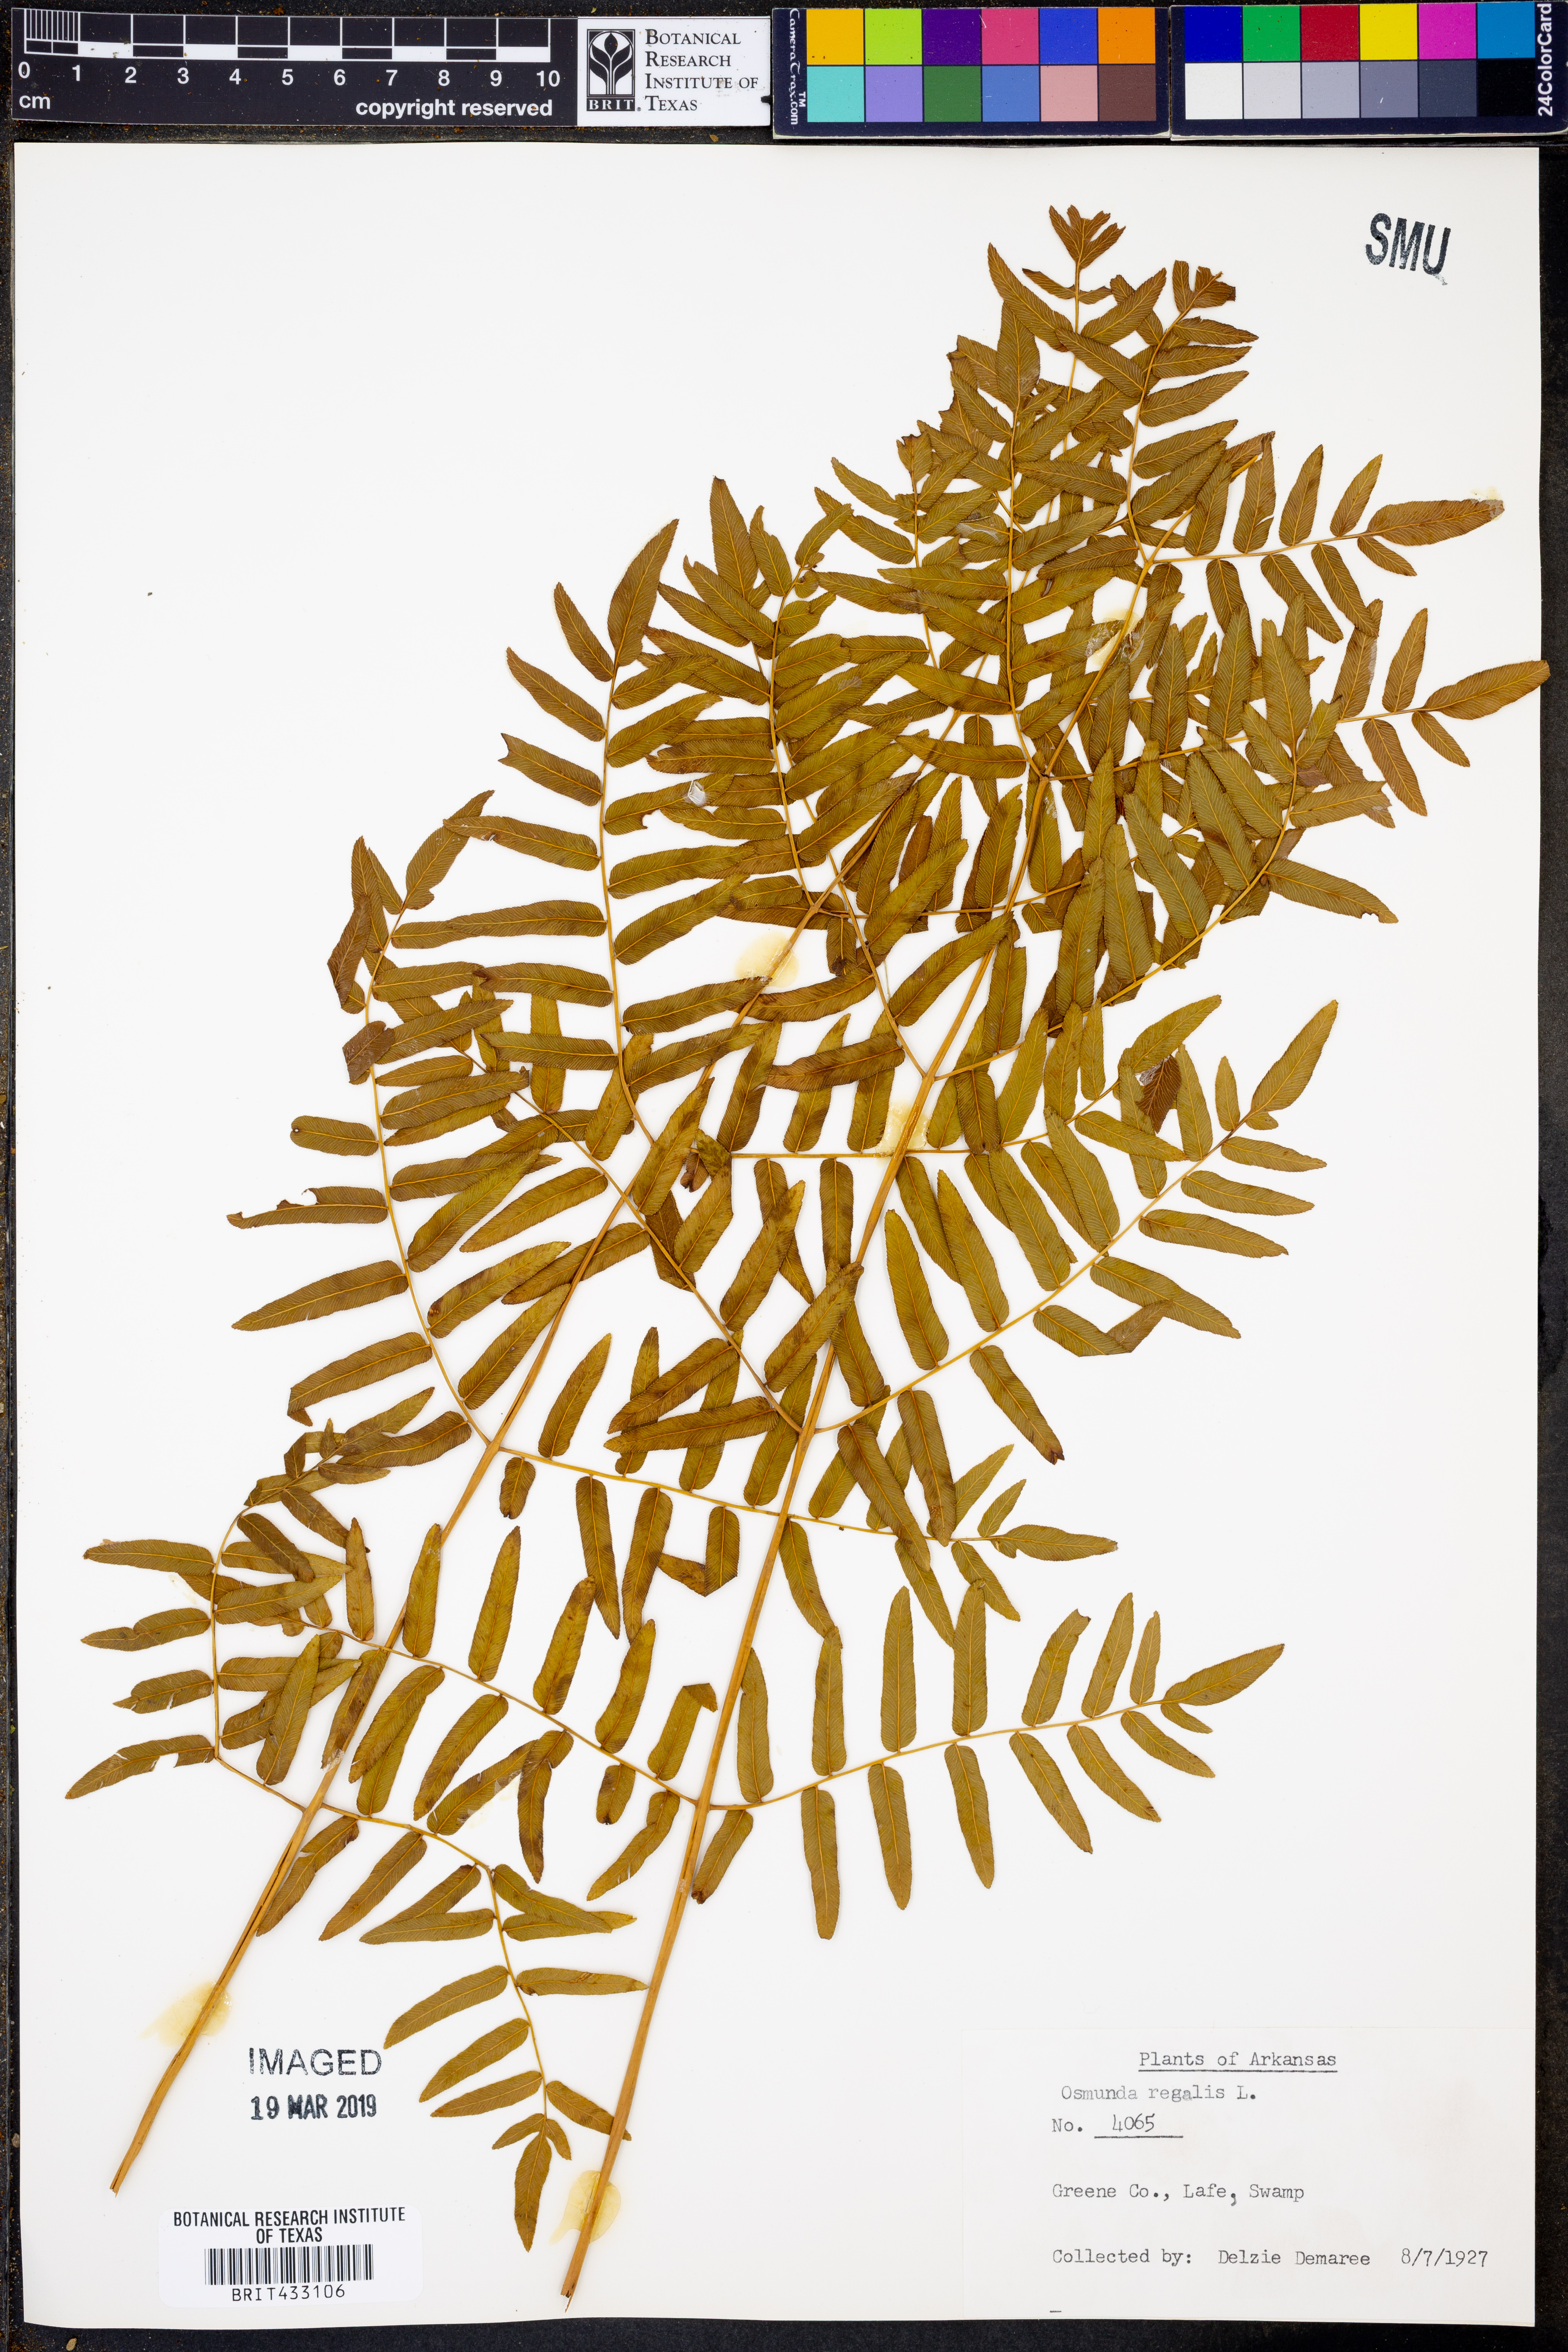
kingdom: Plantae
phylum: Tracheophyta
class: Polypodiopsida
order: Osmundales
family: Osmundaceae
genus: Osmunda
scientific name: Osmunda regalis
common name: Royal fern
